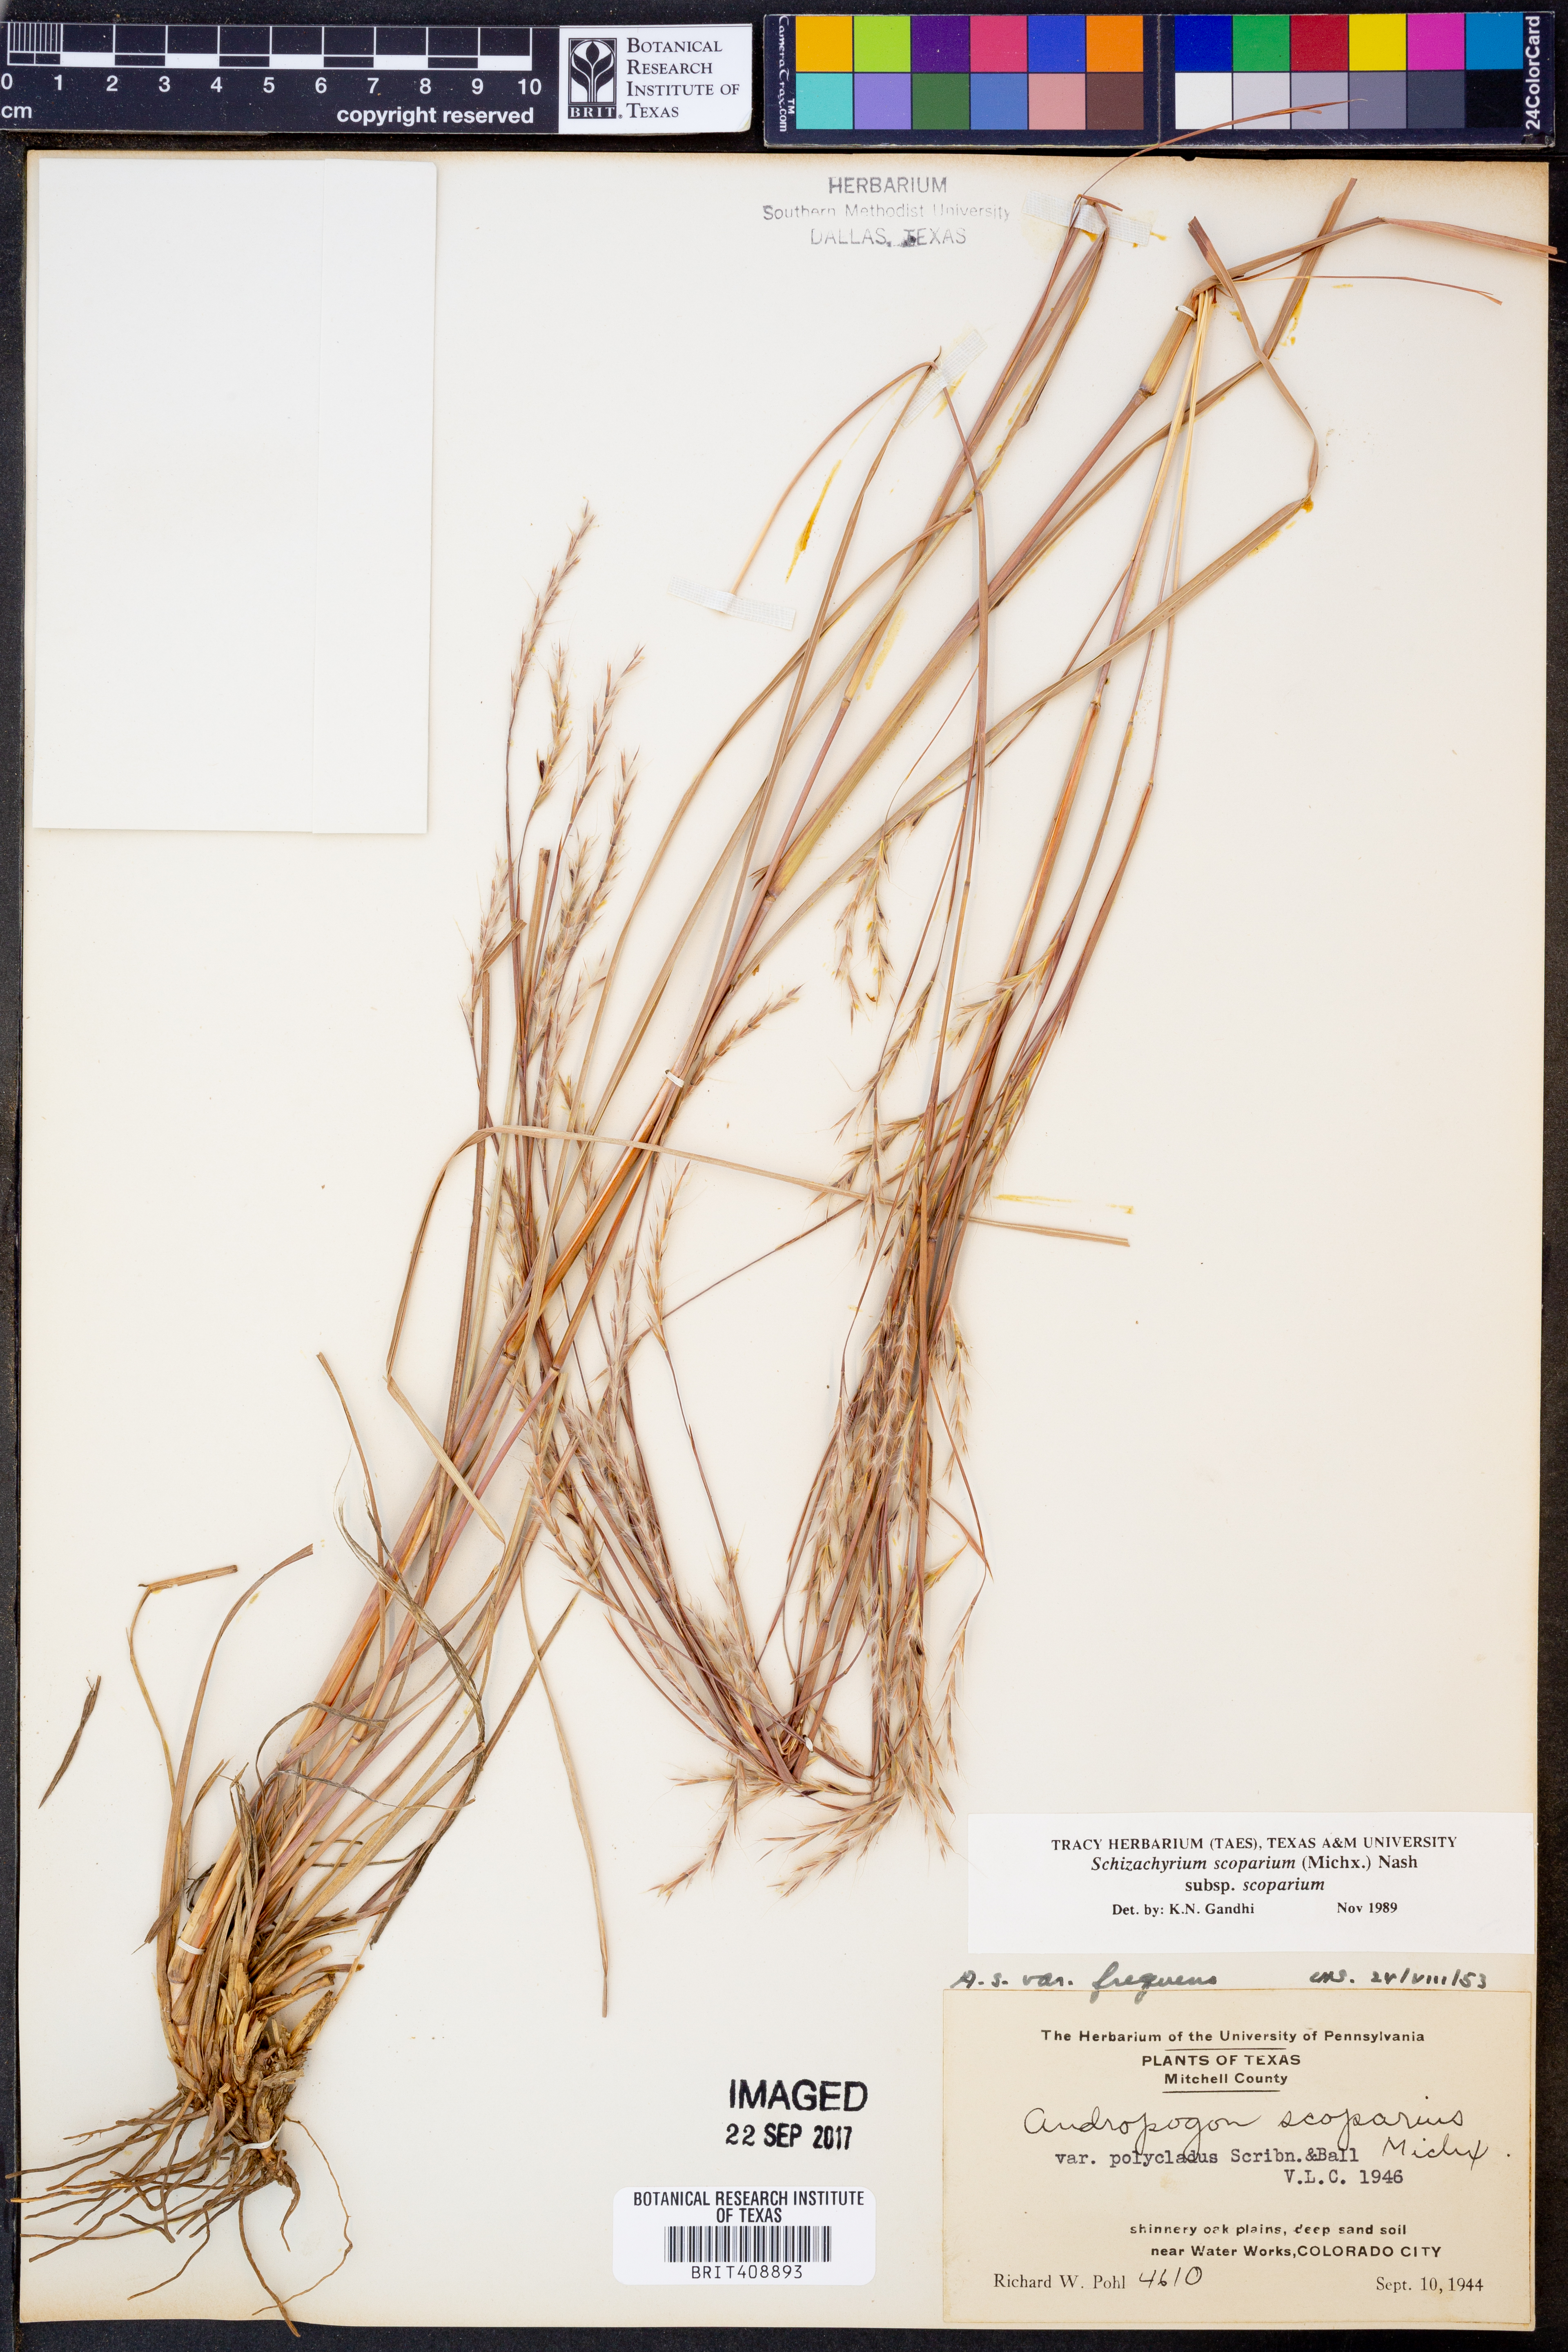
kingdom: Plantae
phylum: Tracheophyta
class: Liliopsida
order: Poales
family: Poaceae
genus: Schizachyrium
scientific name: Schizachyrium scoparium
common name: Little bluestem
